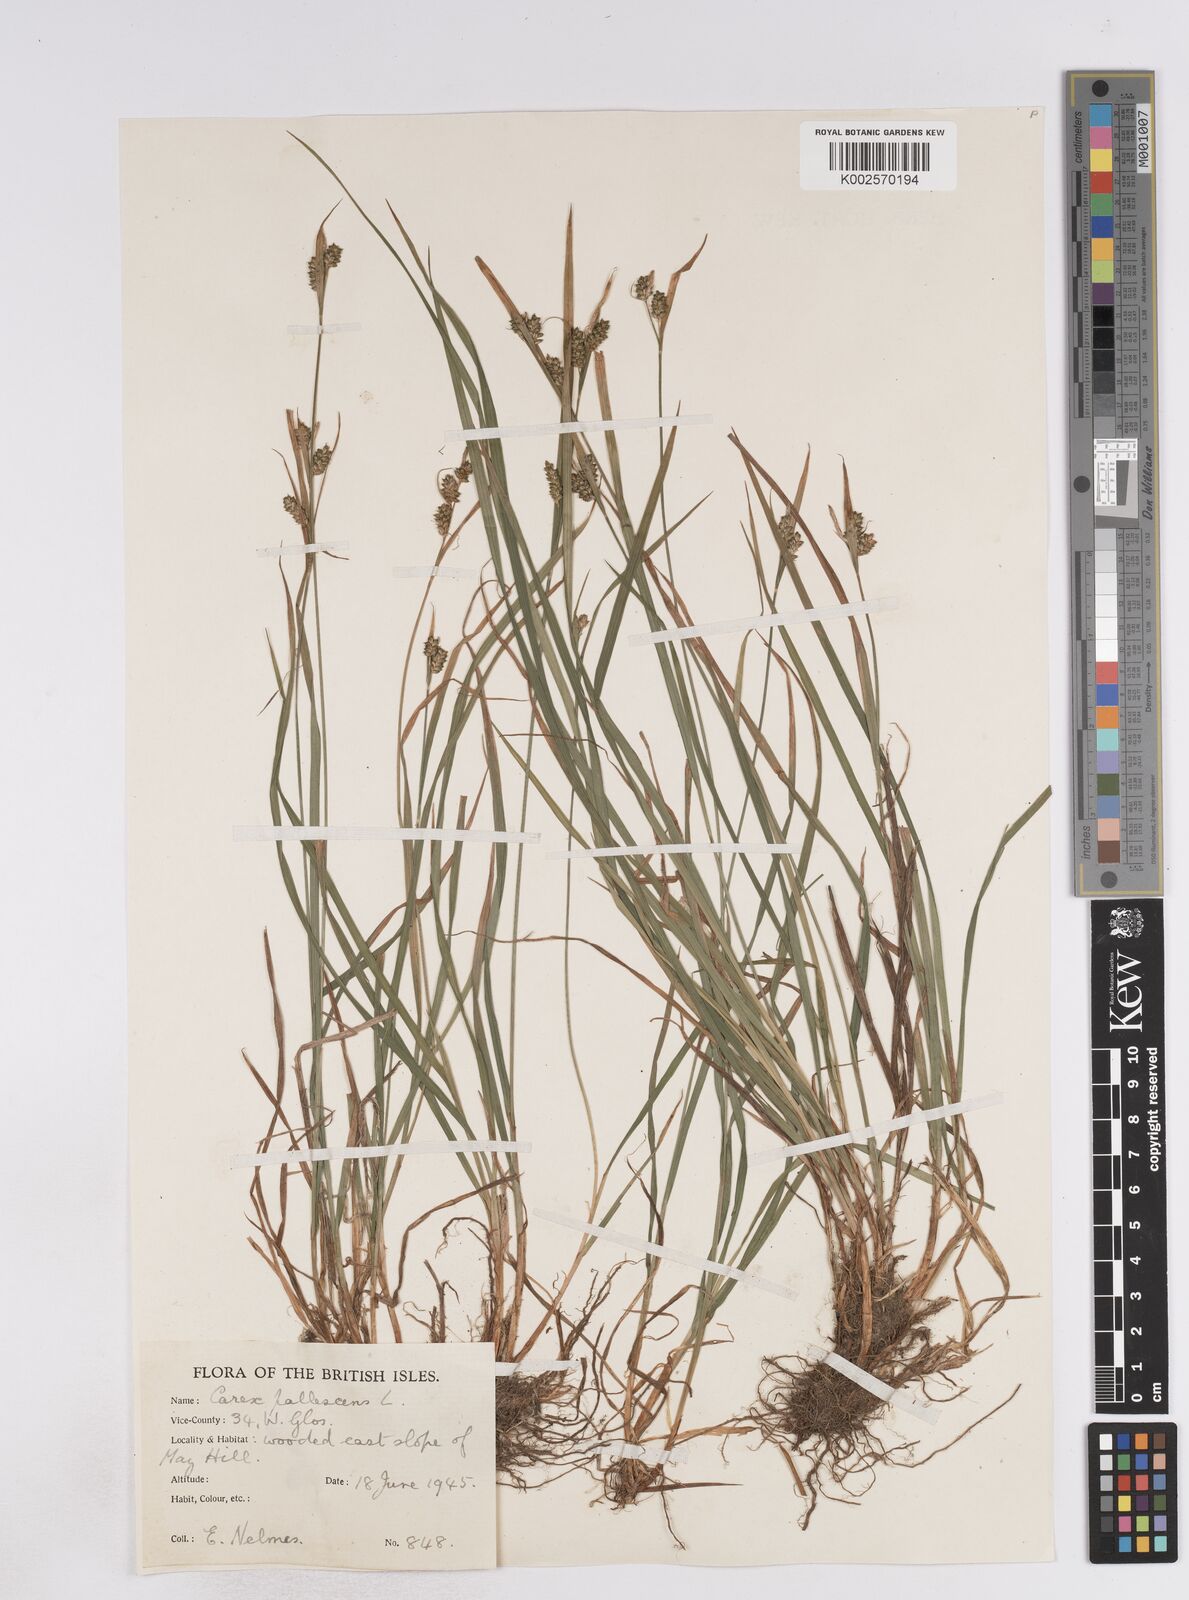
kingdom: Plantae
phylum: Tracheophyta
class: Liliopsida
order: Poales
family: Cyperaceae
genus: Carex
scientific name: Carex pallescens
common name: Pale sedge
